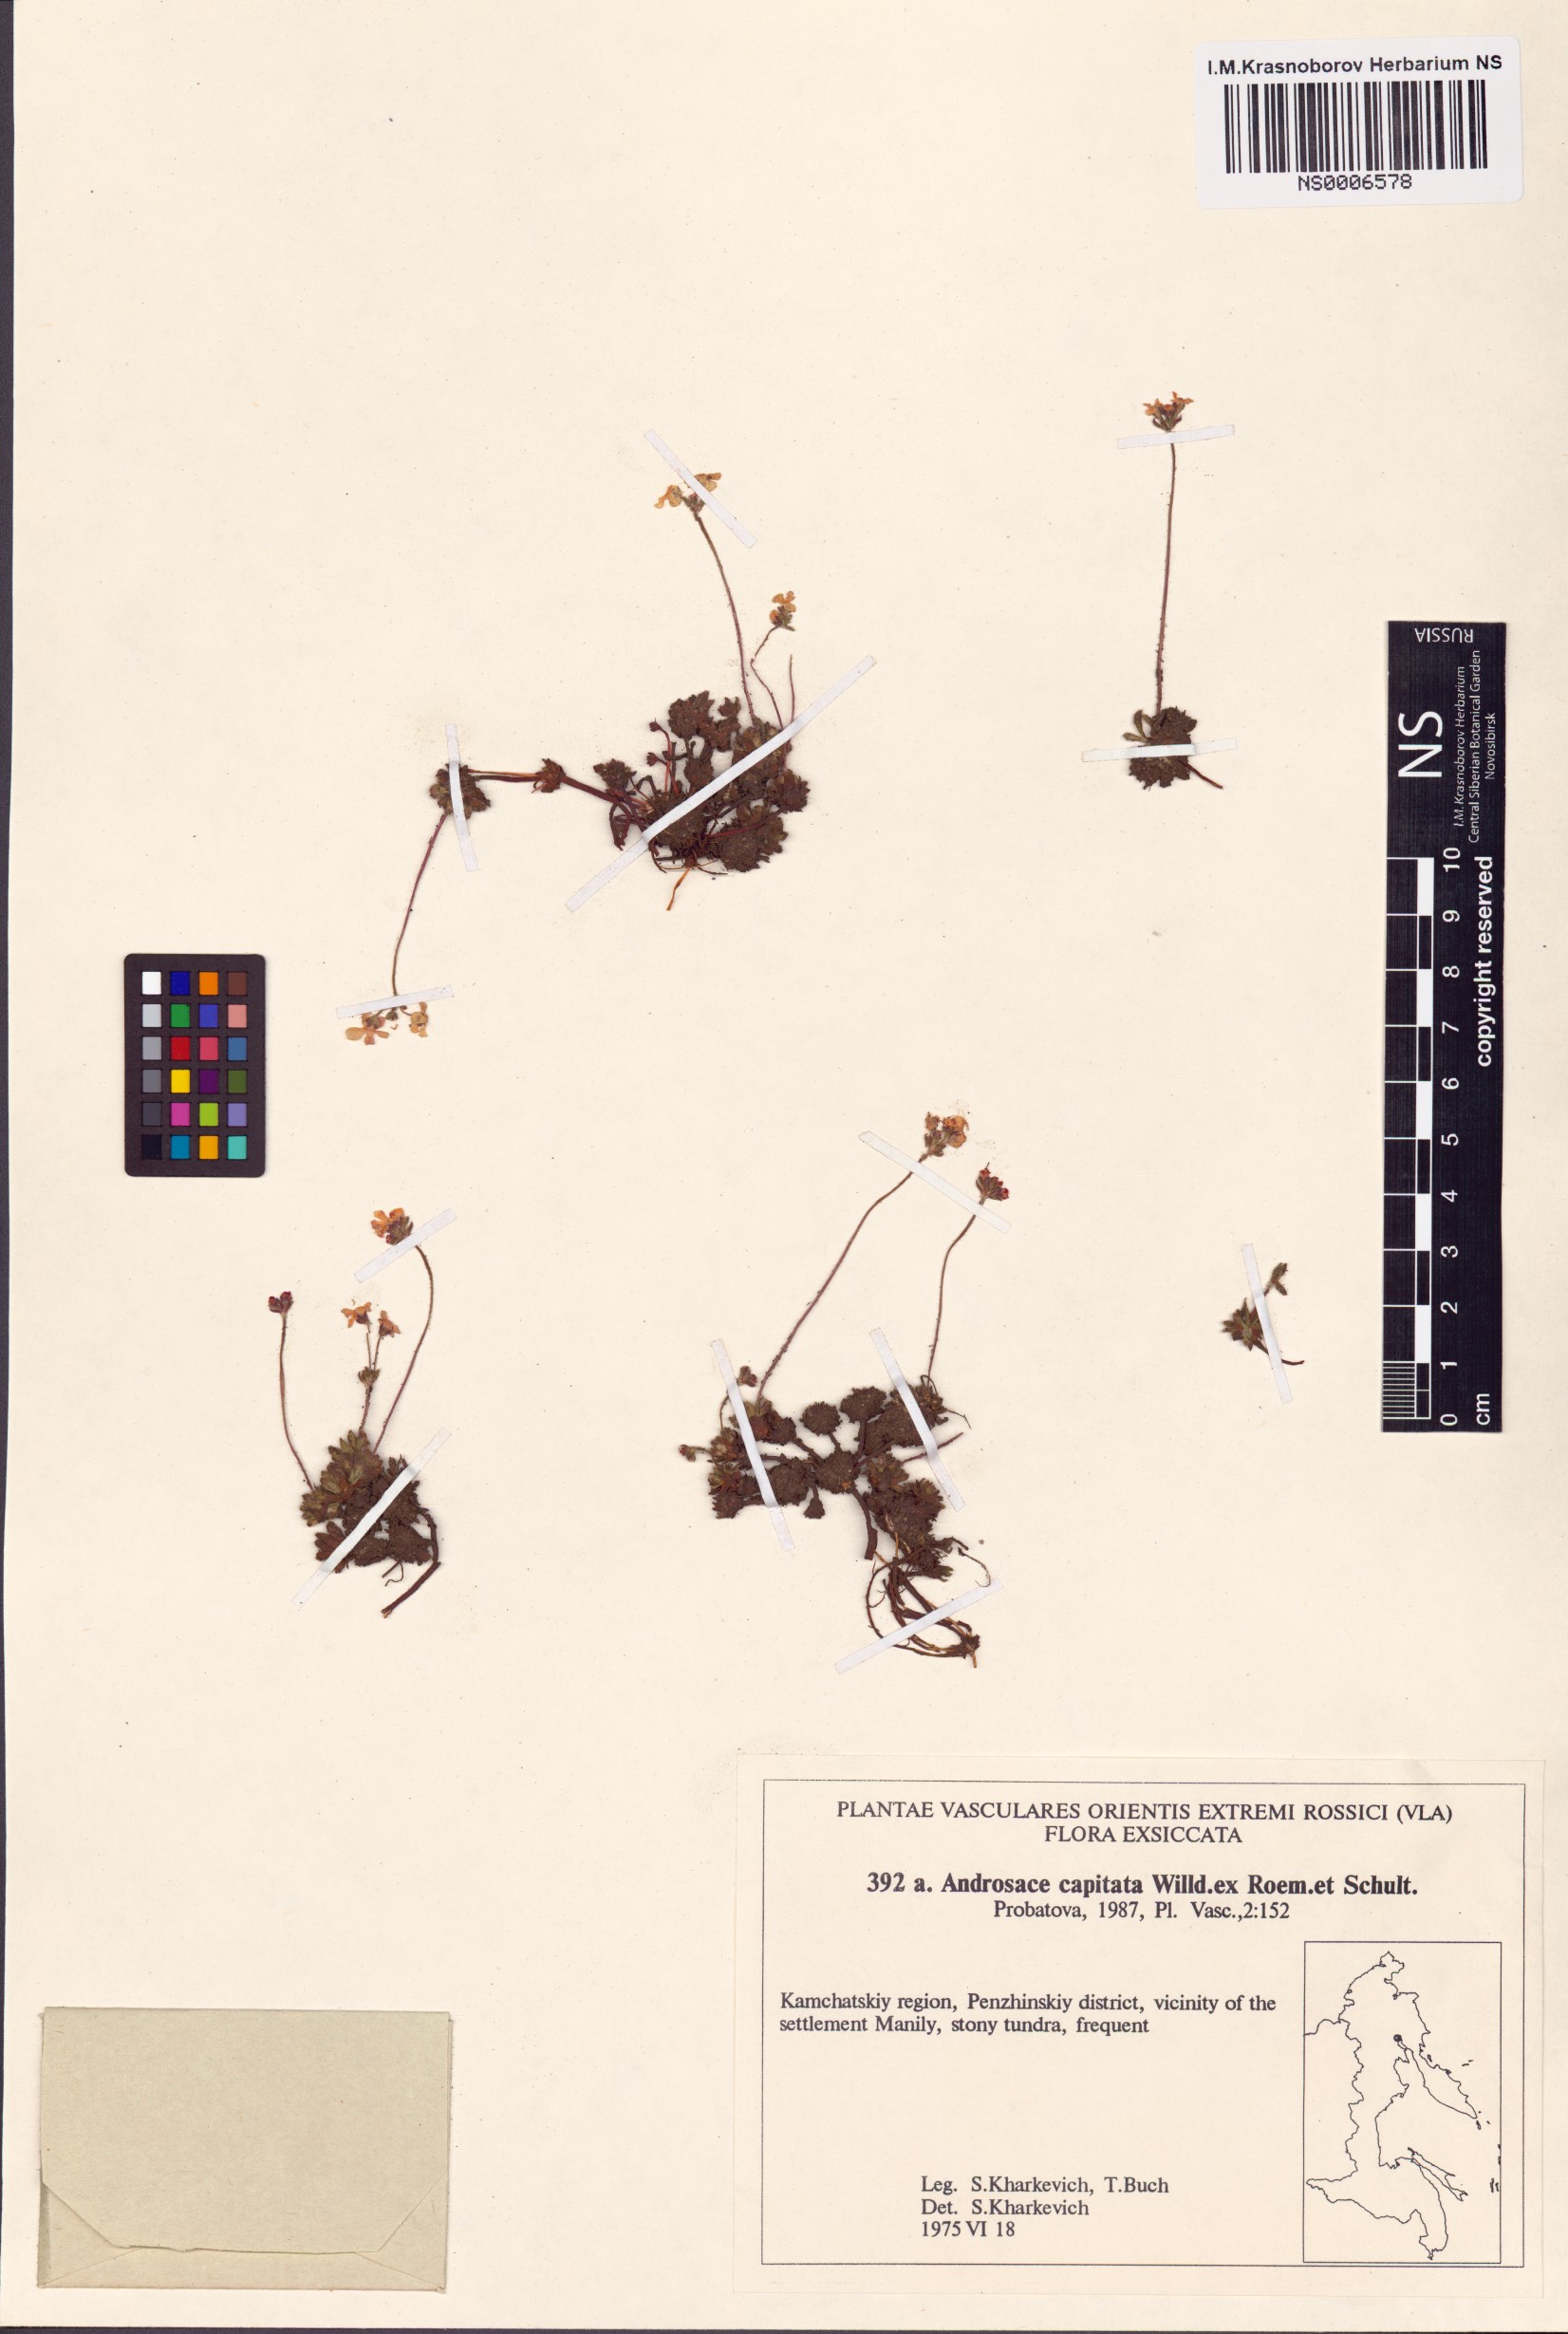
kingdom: Plantae
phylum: Tracheophyta
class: Magnoliopsida
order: Ericales
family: Primulaceae
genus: Androsace
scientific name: Androsace chamaejasme
